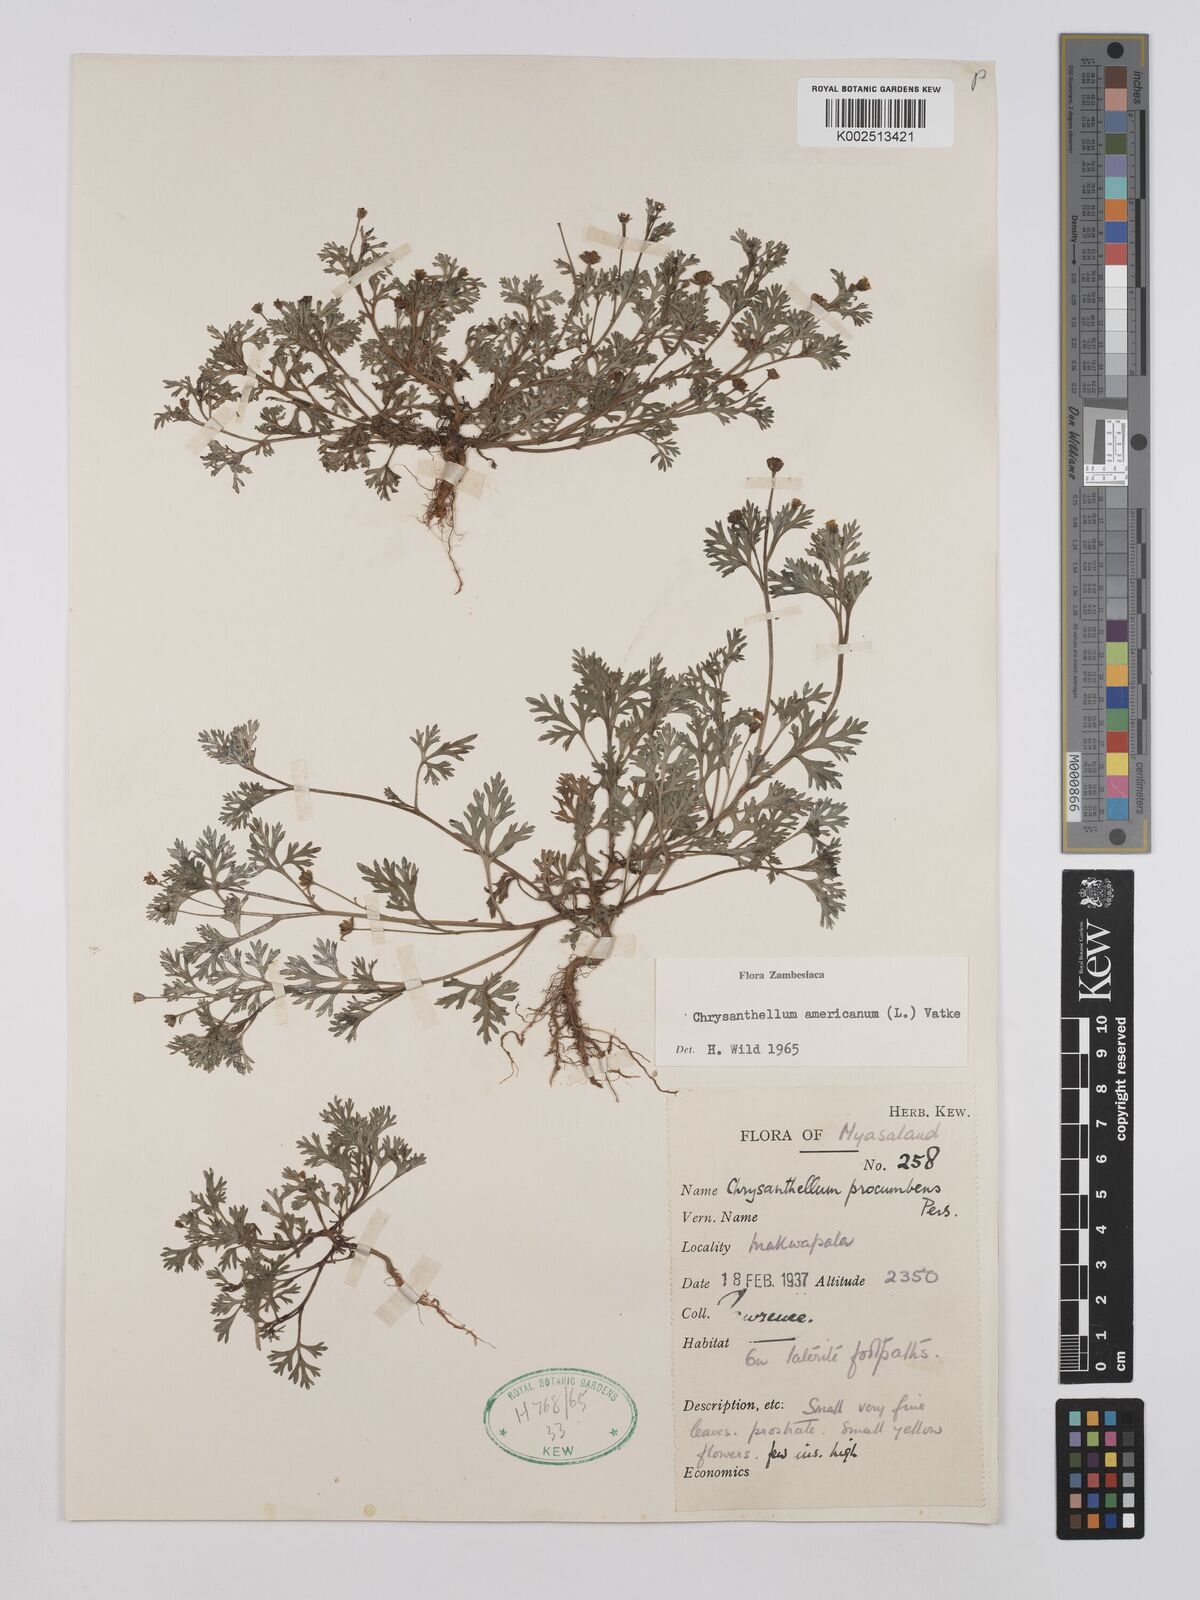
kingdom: Plantae
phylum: Tracheophyta
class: Magnoliopsida
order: Asterales
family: Asteraceae
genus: Chrysanthellum
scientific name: Chrysanthellum indicum
